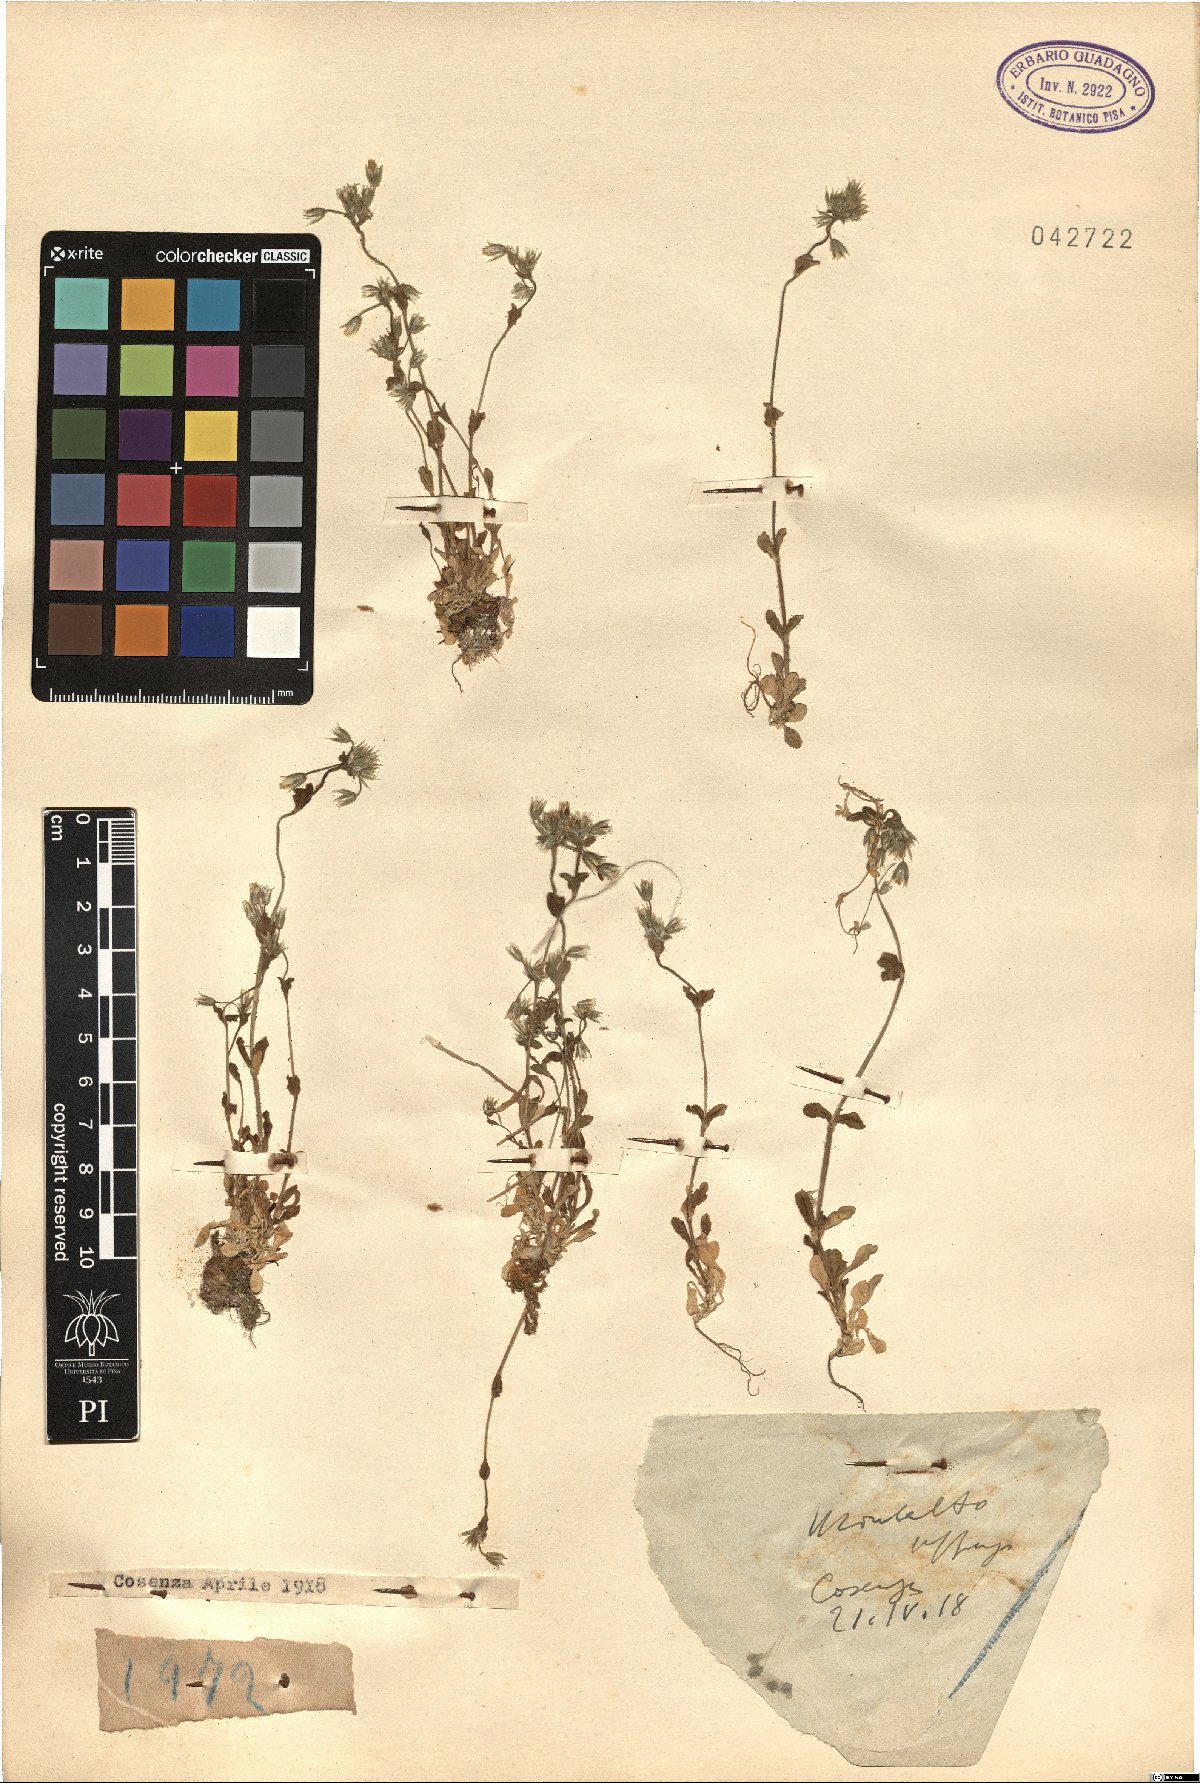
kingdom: Plantae
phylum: Tracheophyta
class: Magnoliopsida
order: Caryophyllales
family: Caryophyllaceae
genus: Cerastium
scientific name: Cerastium
